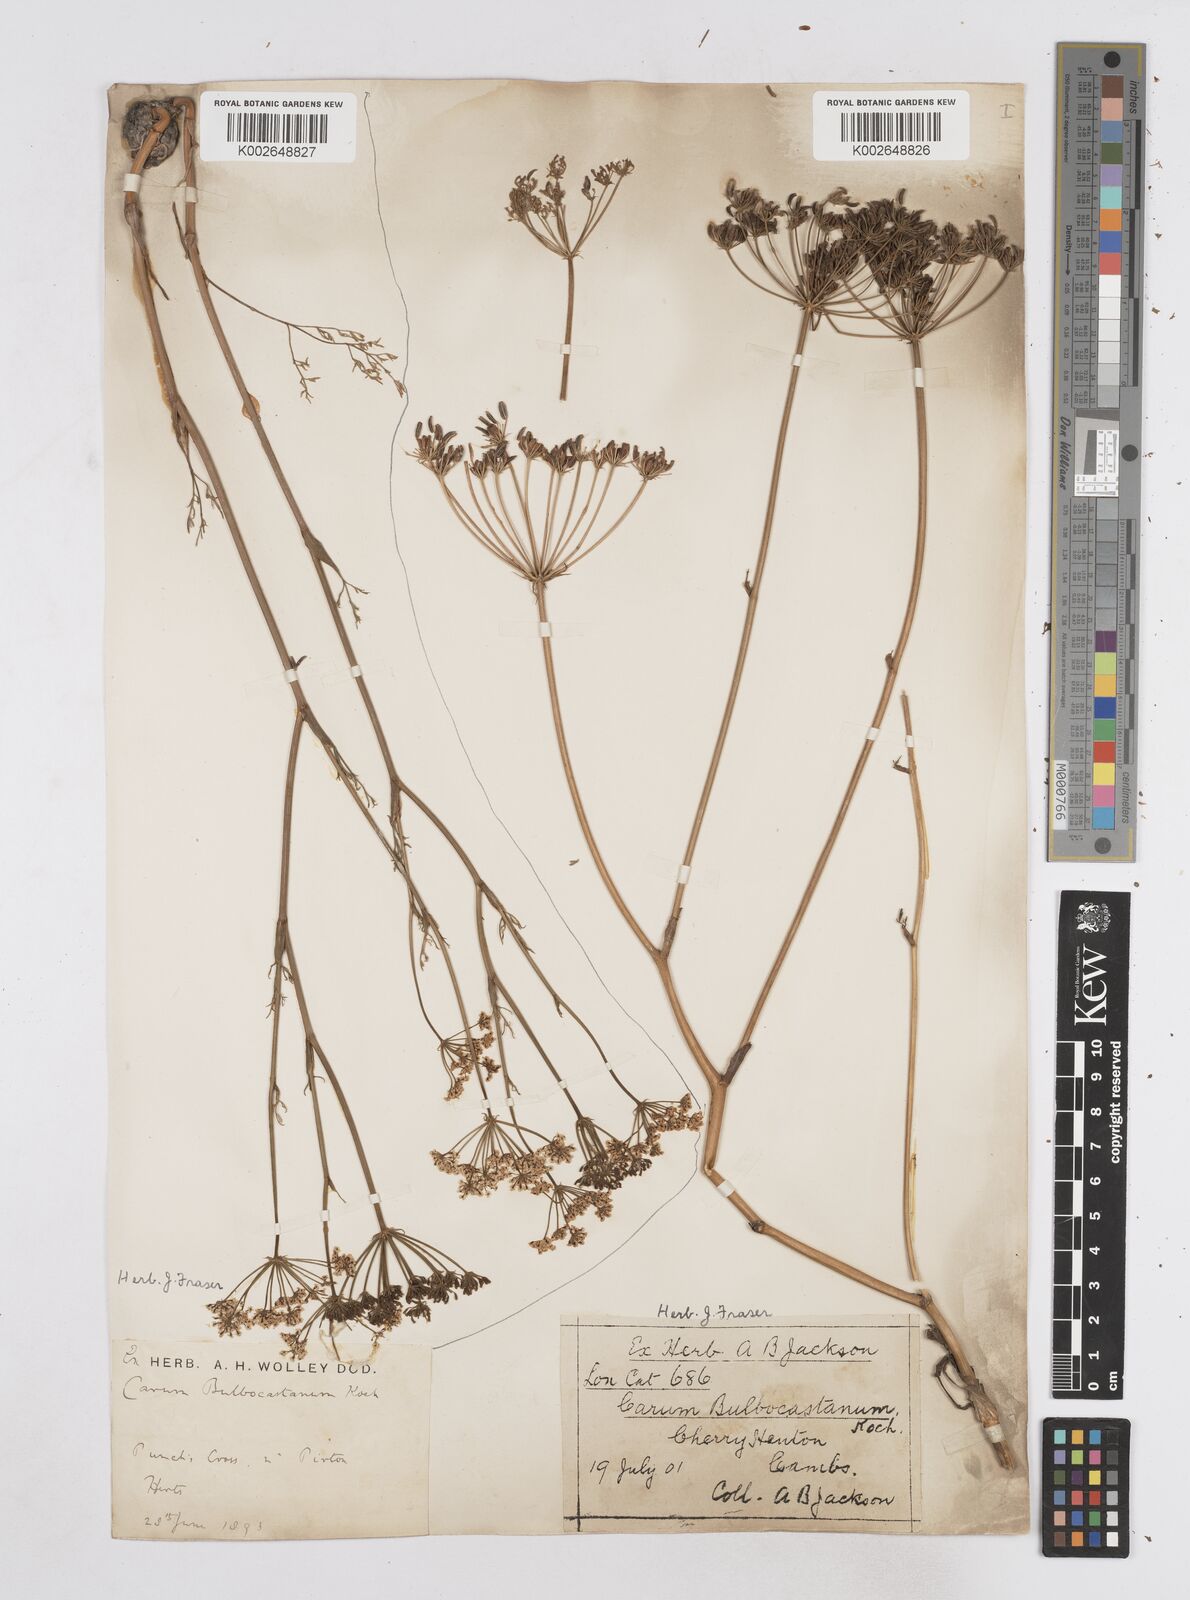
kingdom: Plantae
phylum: Tracheophyta
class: Magnoliopsida
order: Apiales
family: Apiaceae
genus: Bunium
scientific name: Bunium bulbocastanum
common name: Great pignut
